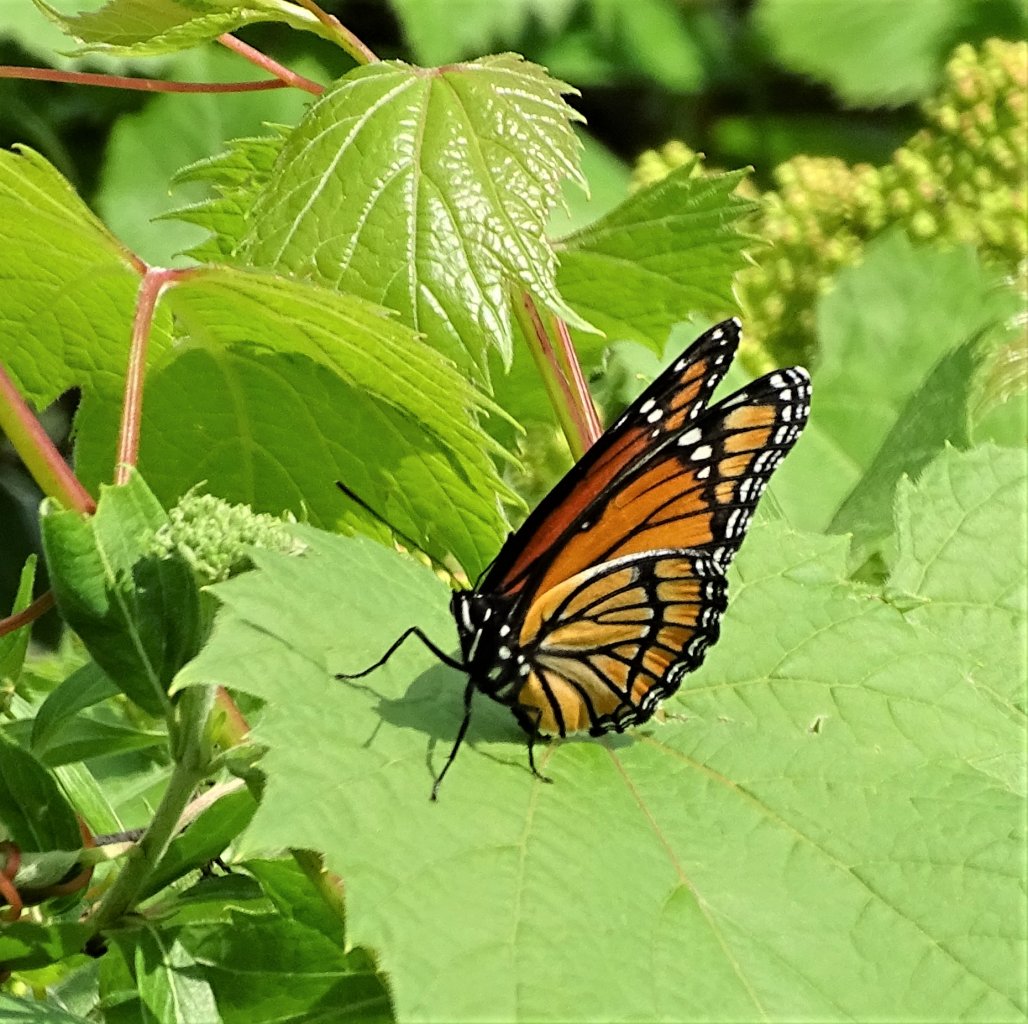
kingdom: Animalia
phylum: Arthropoda
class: Insecta
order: Lepidoptera
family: Nymphalidae
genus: Limenitis
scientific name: Limenitis archippus
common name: Viceroy
